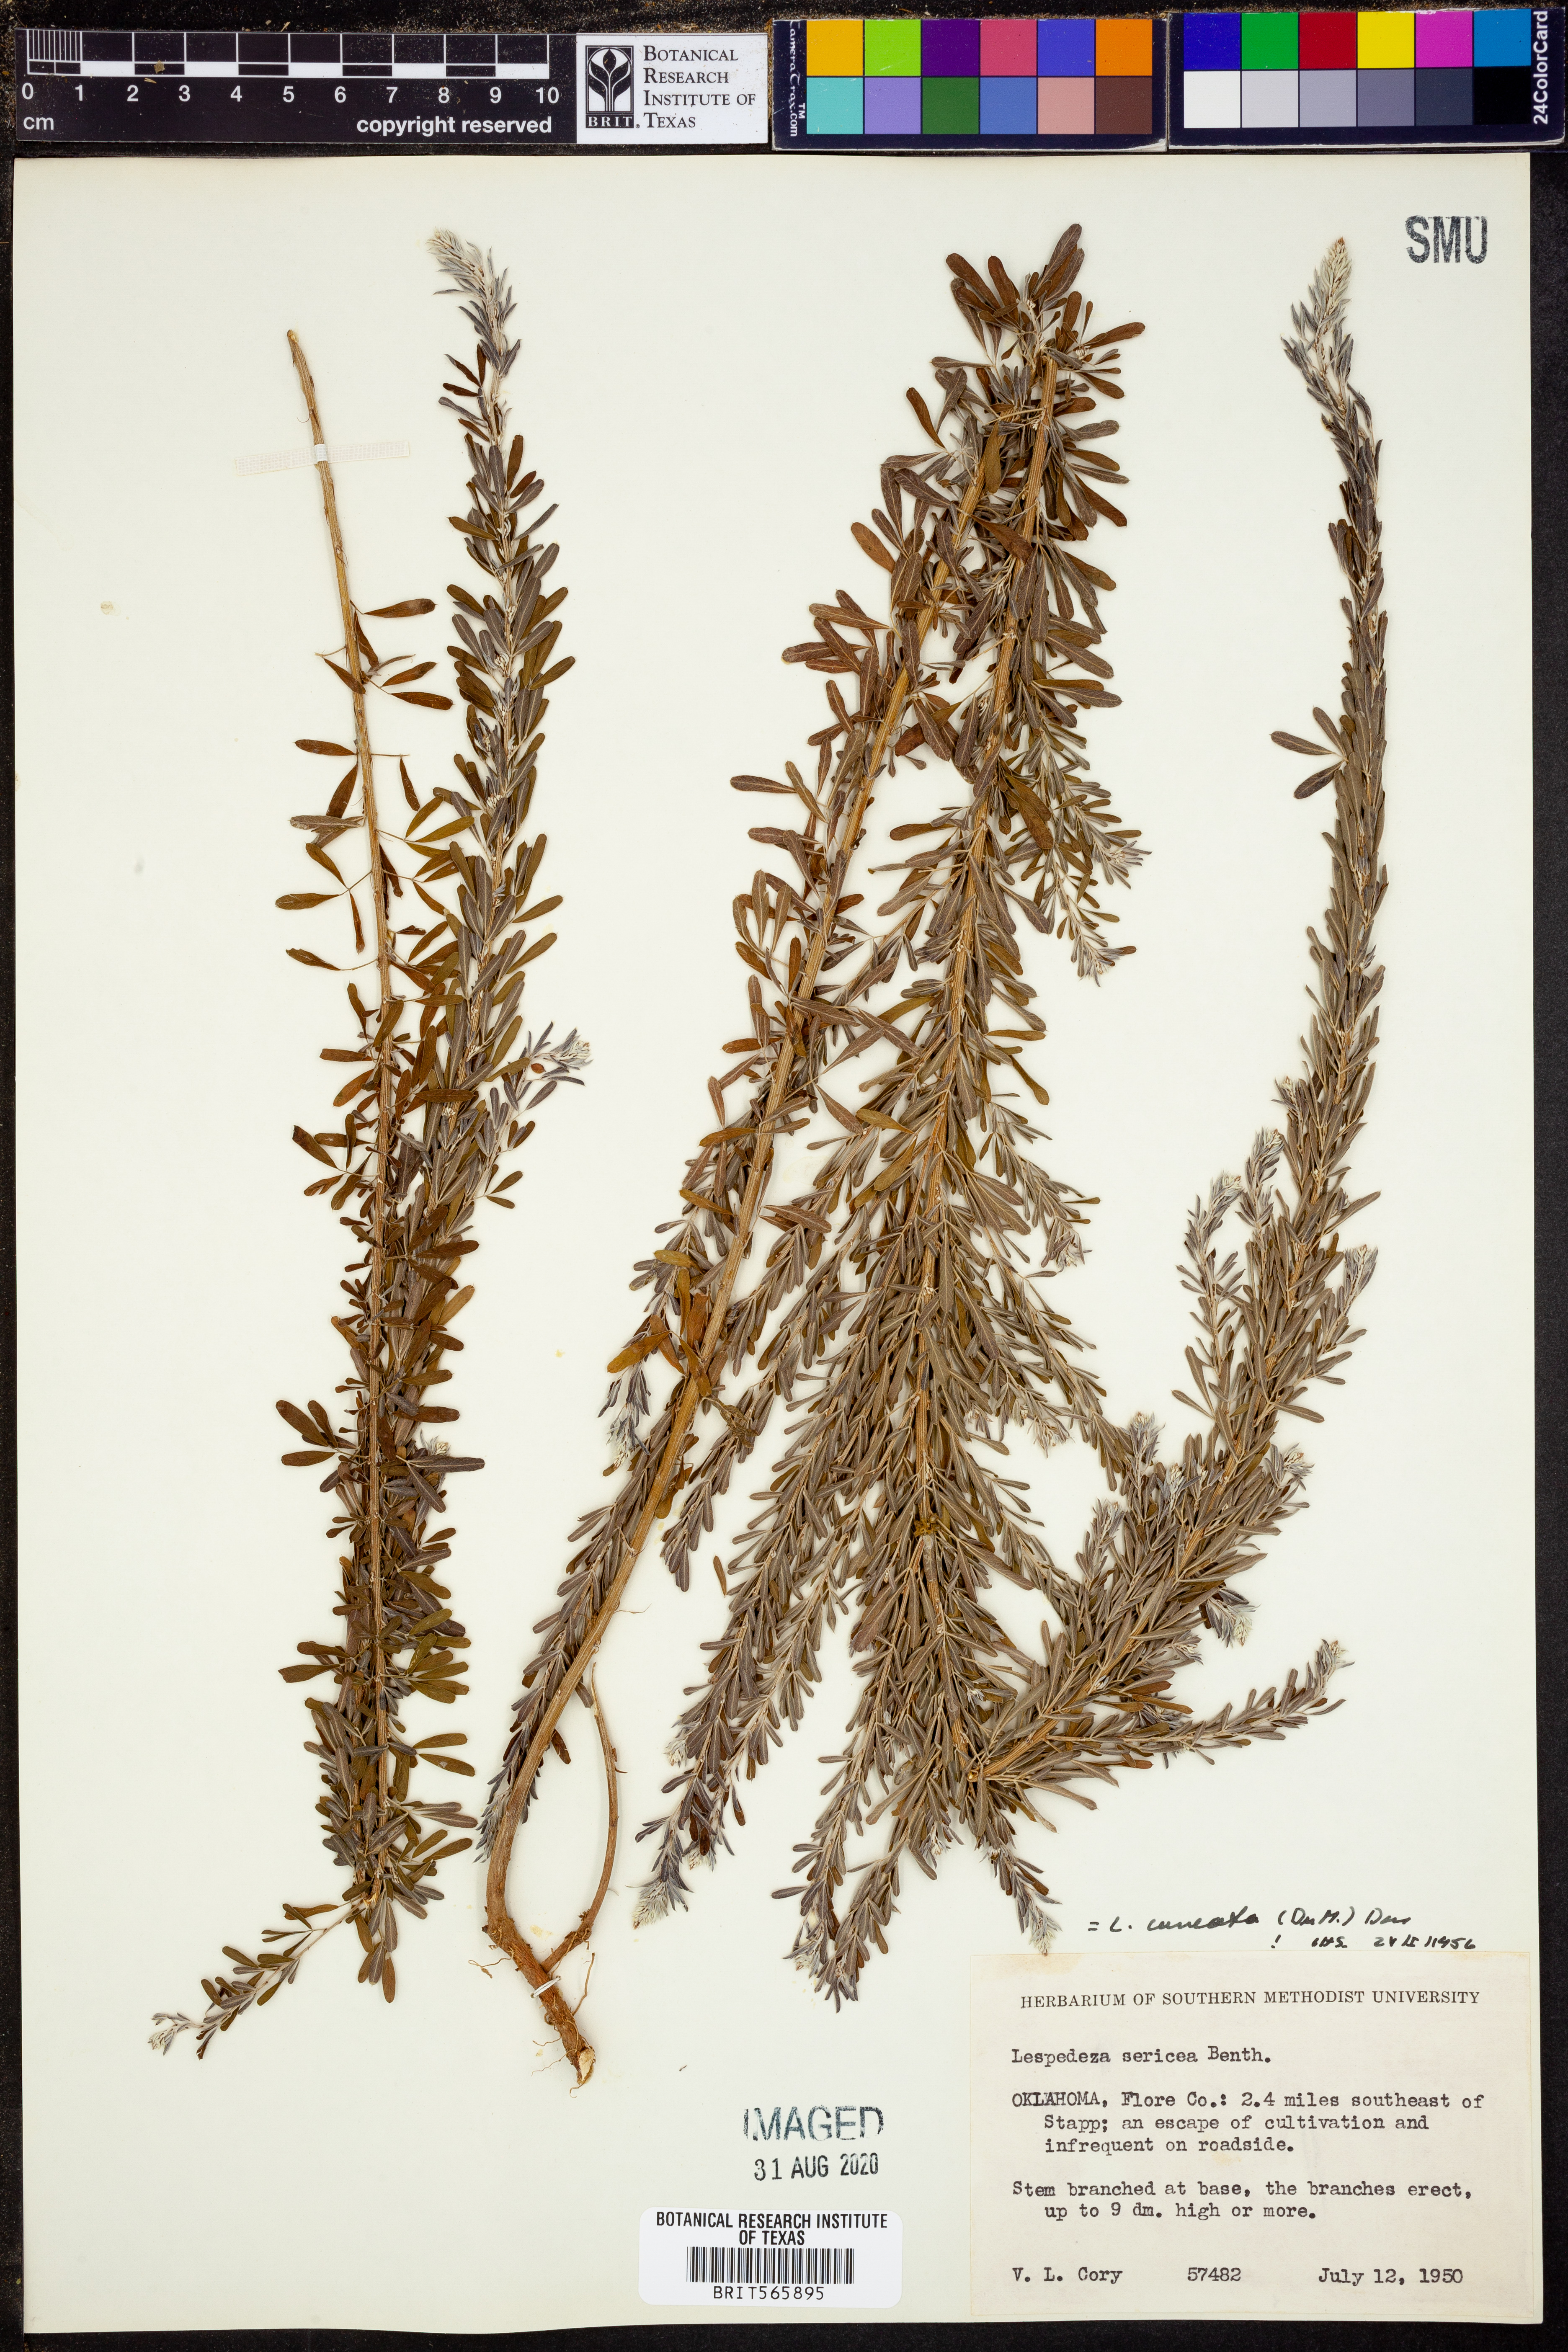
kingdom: Plantae
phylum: Tracheophyta
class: Magnoliopsida
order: Fabales
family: Fabaceae
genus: Lespedeza
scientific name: Lespedeza cuneata
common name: Chinese bush-clover
